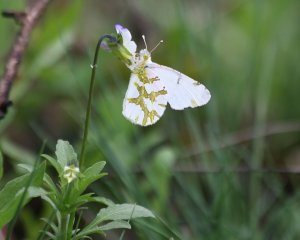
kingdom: Animalia
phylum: Arthropoda
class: Insecta
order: Lepidoptera
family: Pieridae
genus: Euchloe
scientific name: Euchloe olympia
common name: Olympia Marble
